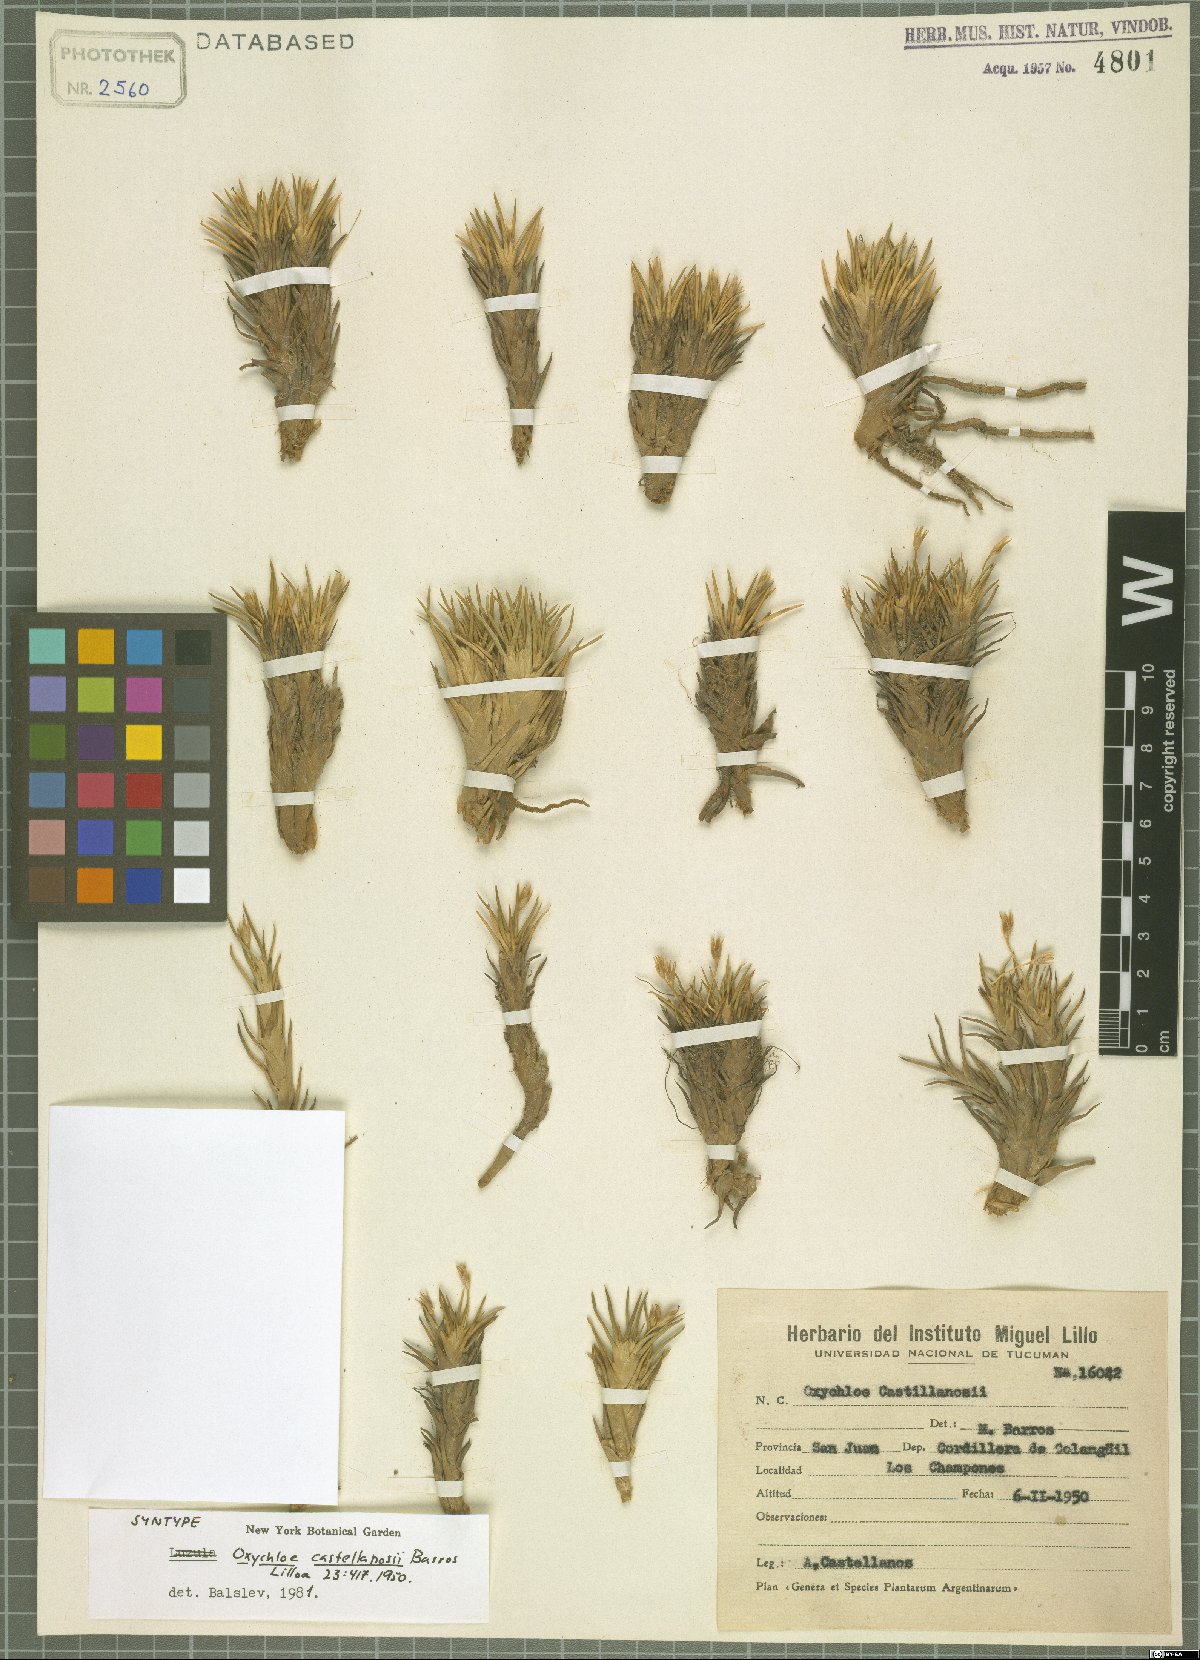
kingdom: Plantae
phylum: Tracheophyta
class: Liliopsida
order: Poales
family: Juncaceae
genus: Oxychloe
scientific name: Oxychloe castellanosii
